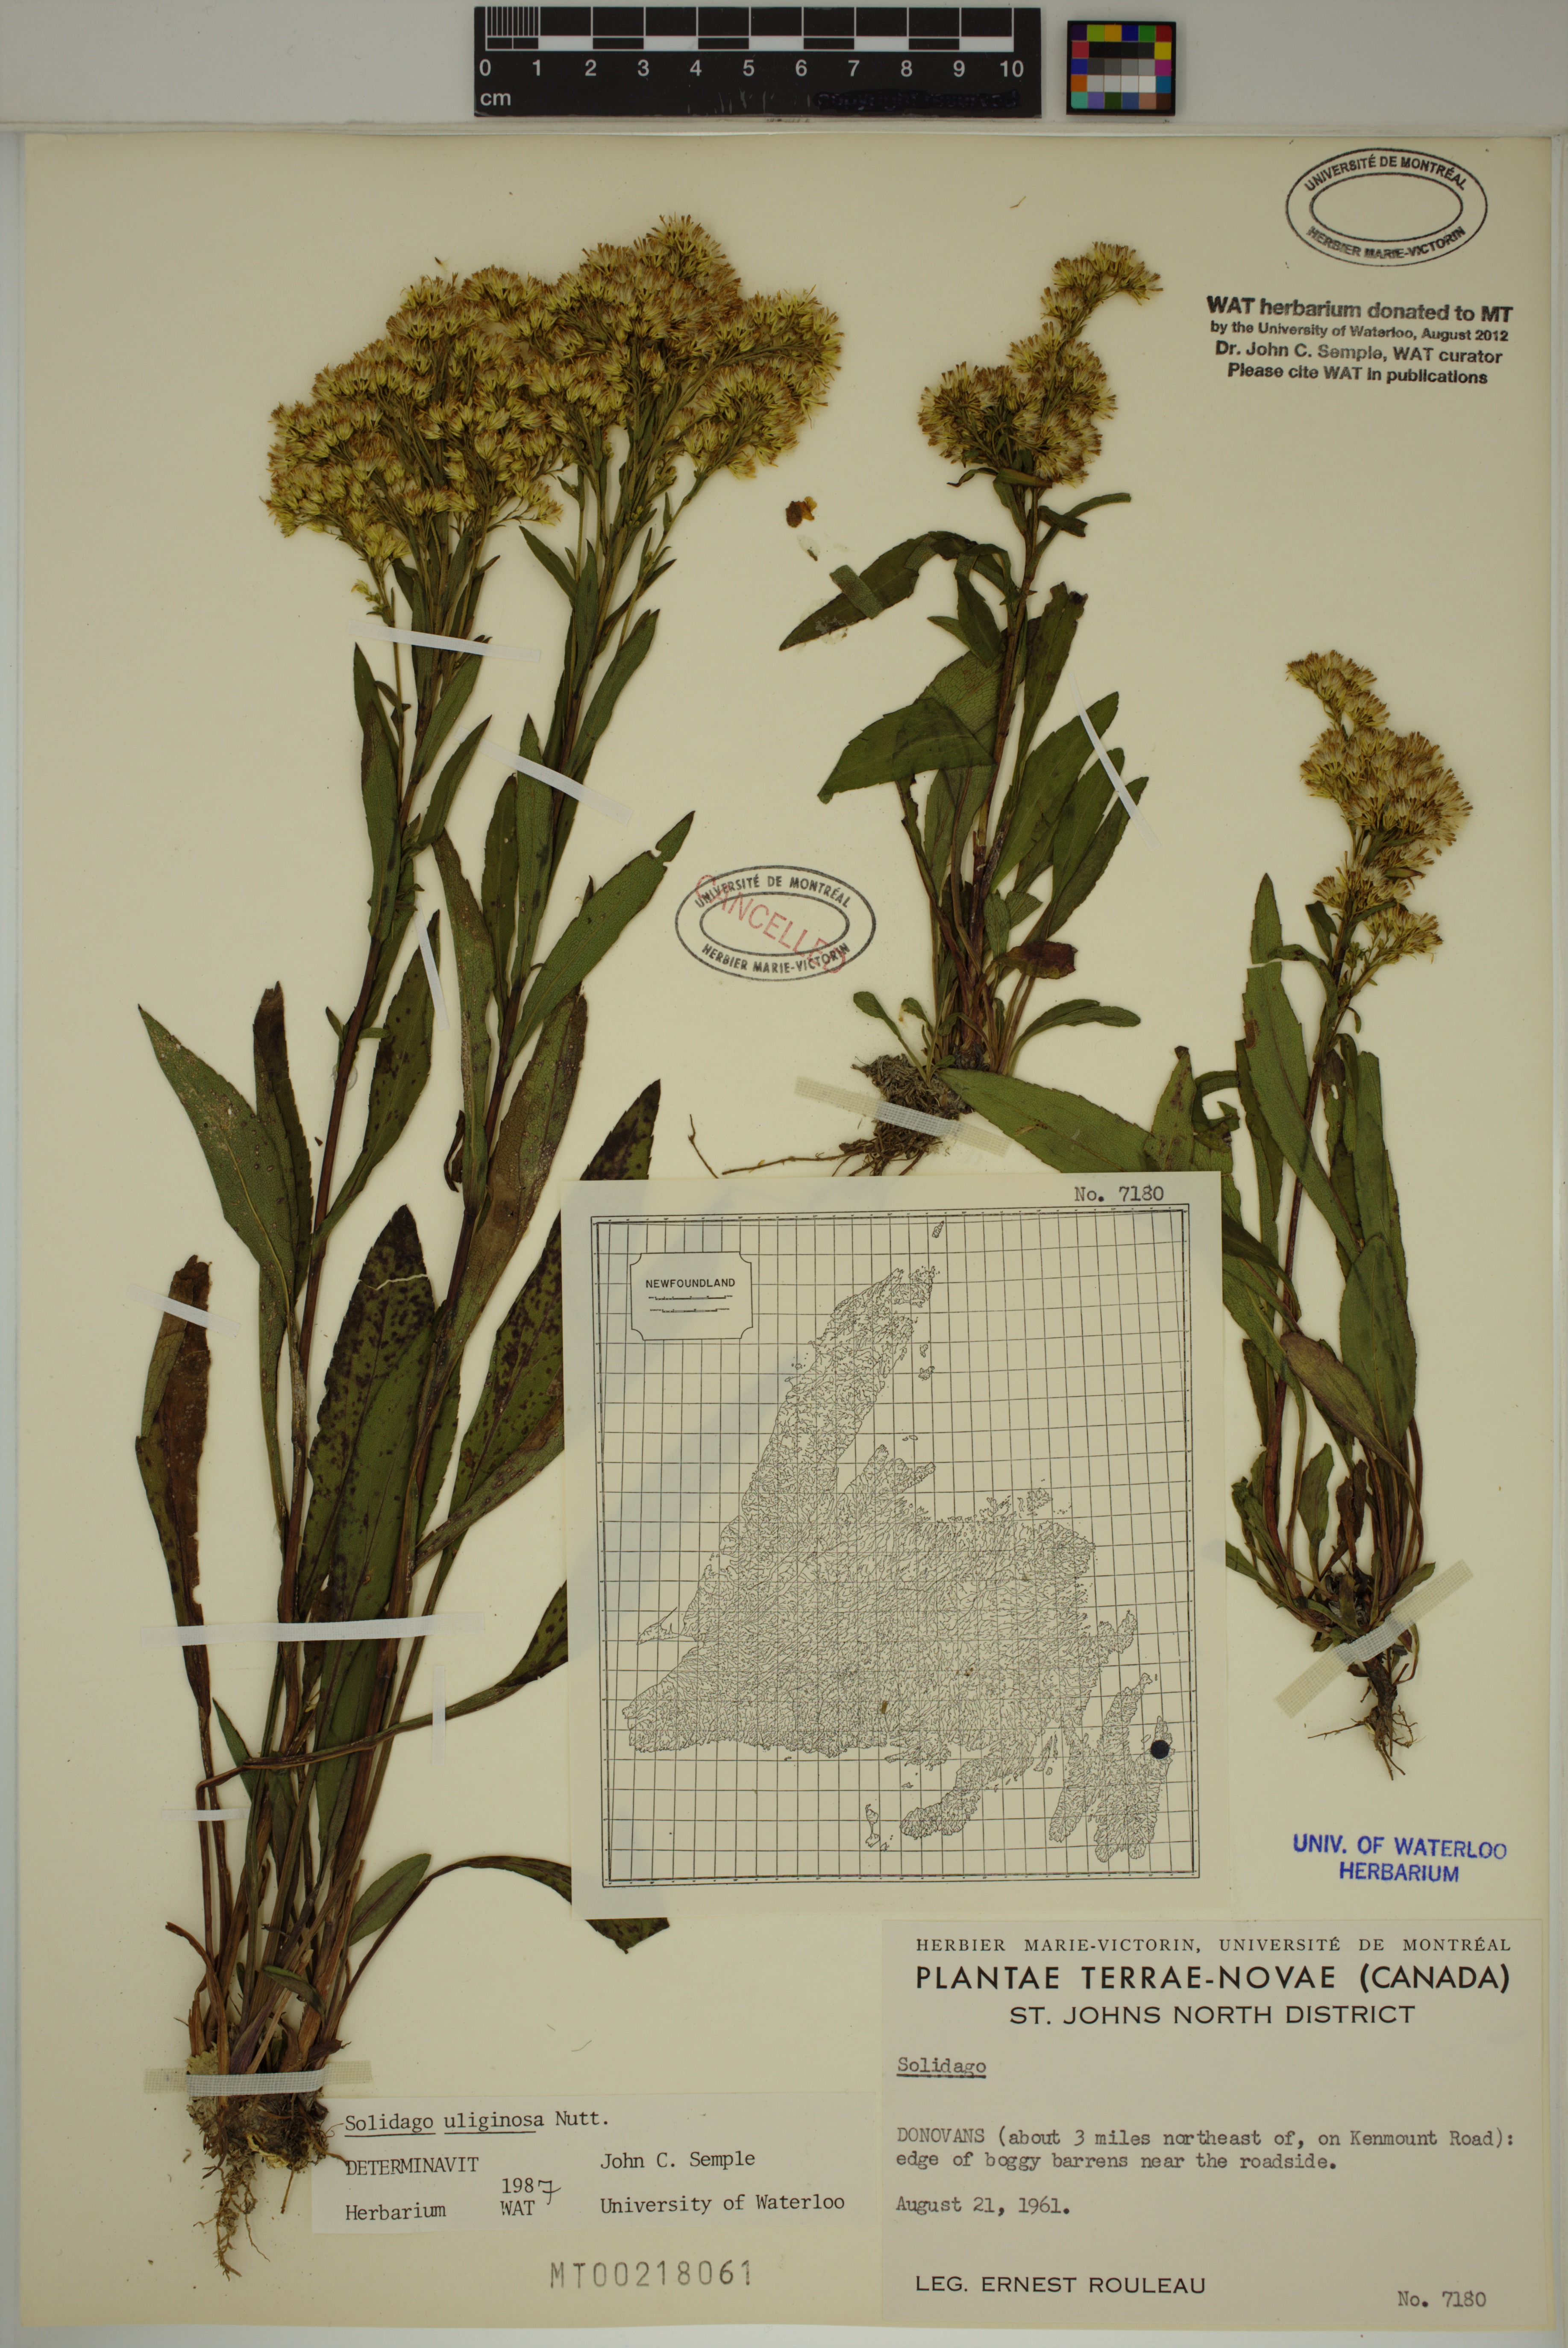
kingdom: Plantae
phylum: Tracheophyta
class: Magnoliopsida
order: Asterales
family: Asteraceae
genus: Solidago
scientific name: Solidago uliginosa
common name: Bog goldenrod
